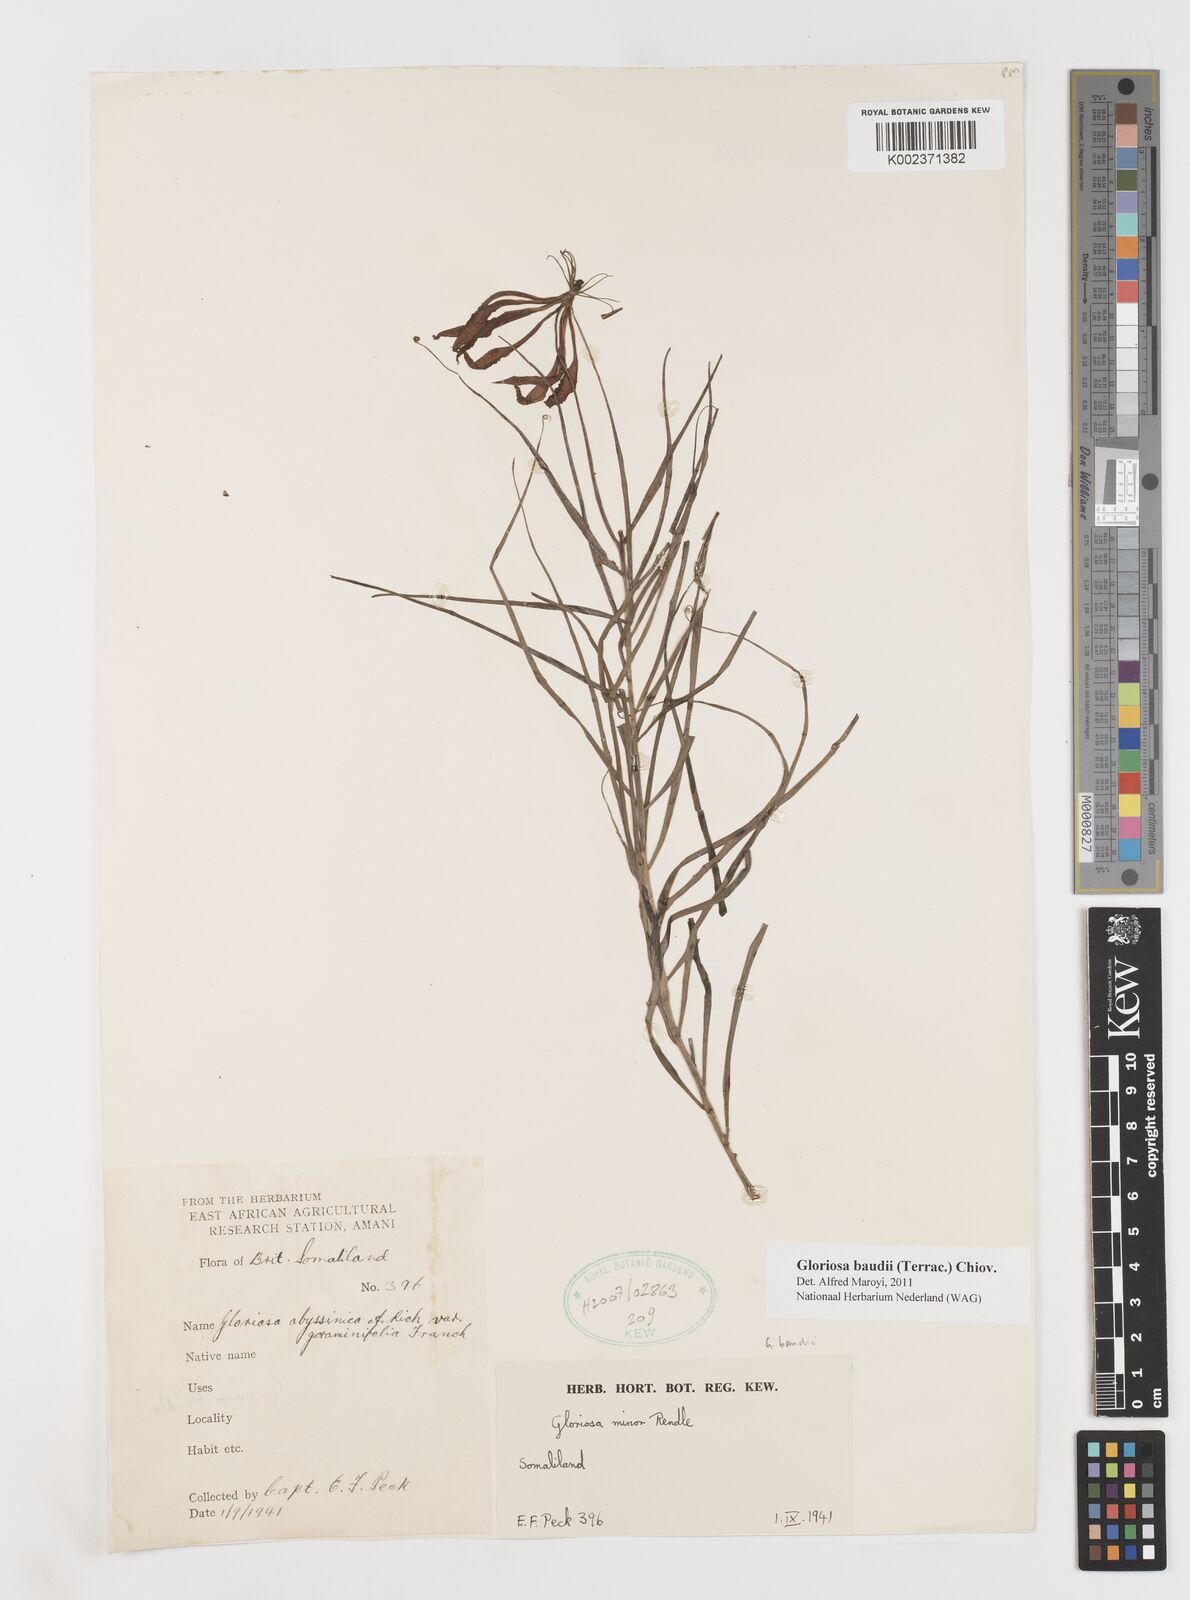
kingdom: Plantae
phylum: Tracheophyta
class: Liliopsida
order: Liliales
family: Colchicaceae
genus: Gloriosa
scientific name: Gloriosa baudii
